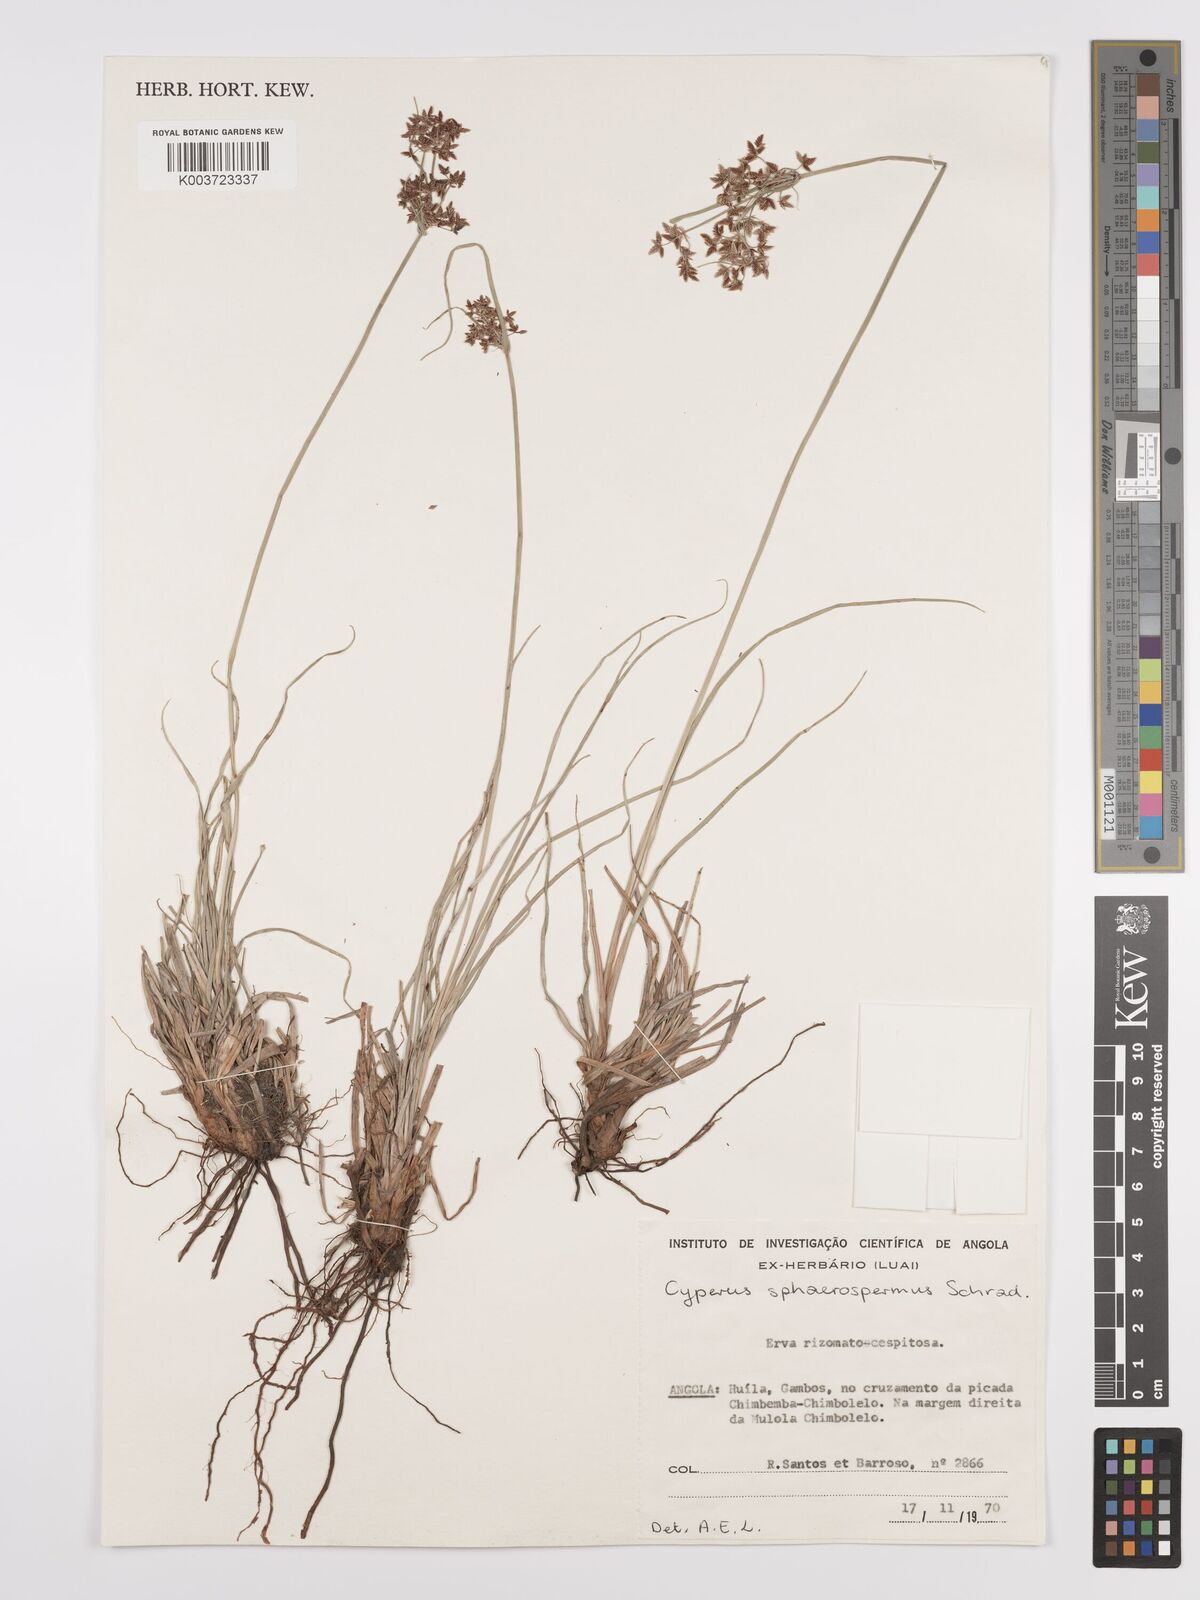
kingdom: Plantae
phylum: Tracheophyta
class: Liliopsida
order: Poales
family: Cyperaceae
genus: Cyperus
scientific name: Cyperus denudatus
